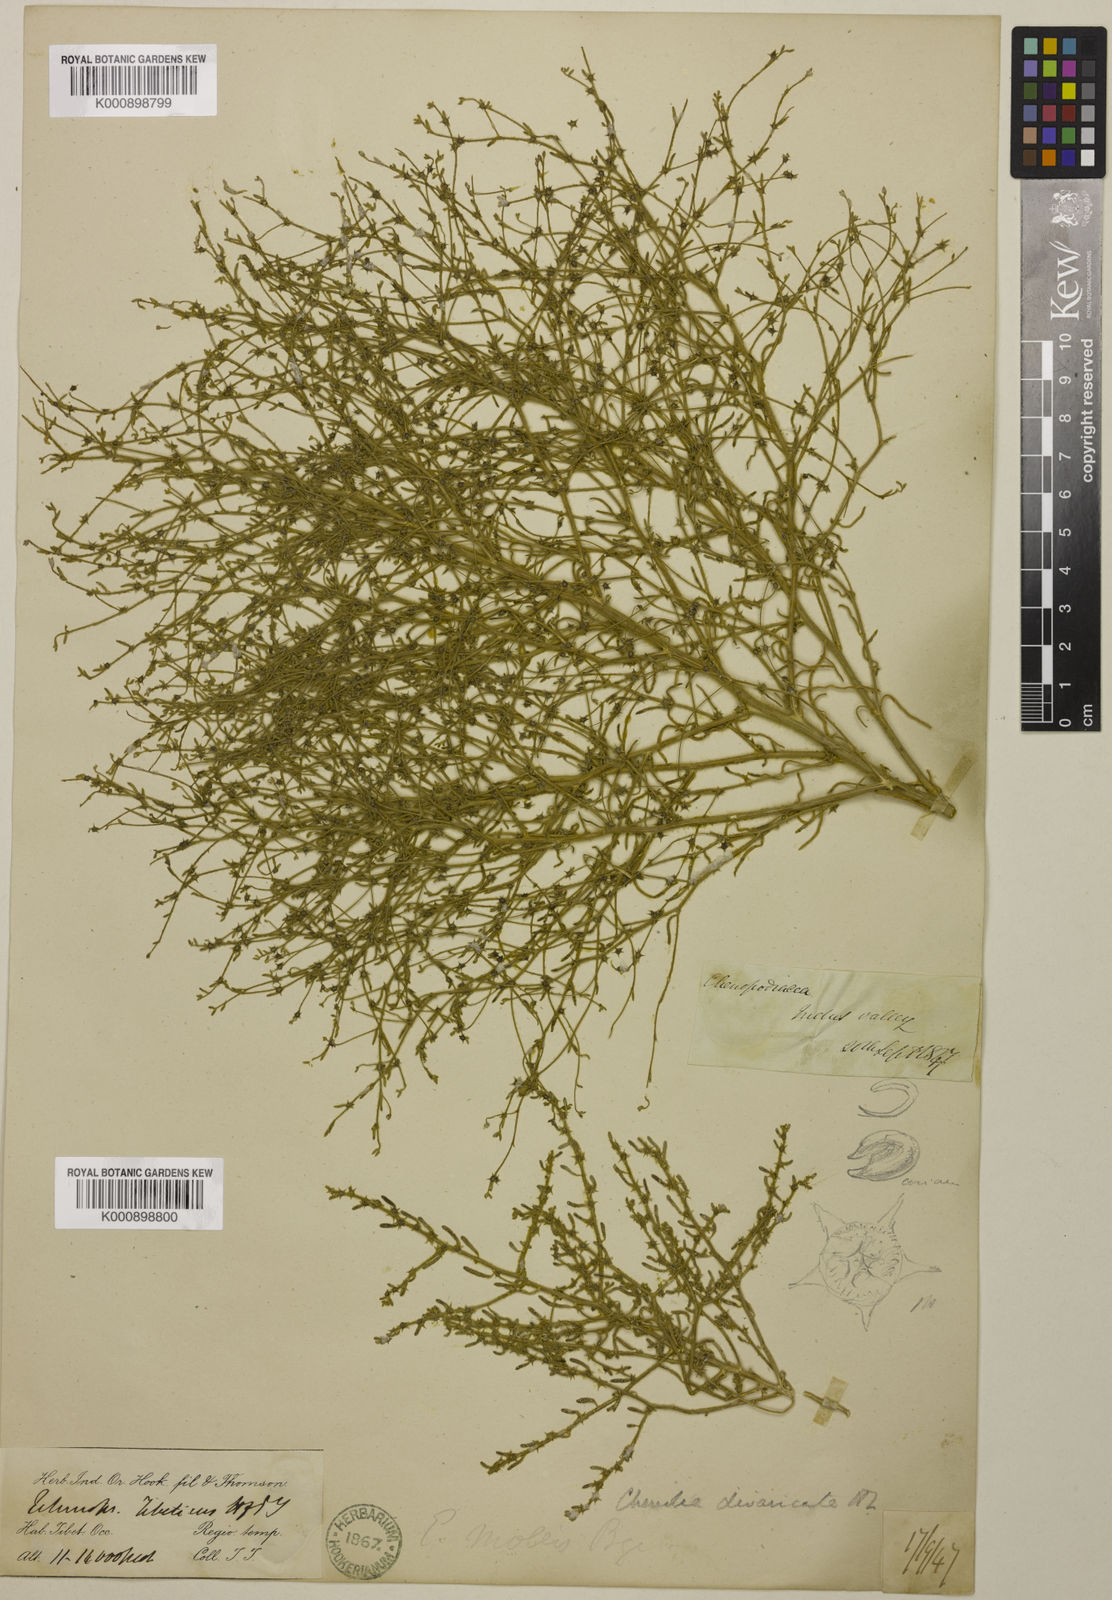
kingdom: Plantae
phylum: Tracheophyta
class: Magnoliopsida
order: Caryophyllales
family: Amaranthaceae
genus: Grubovia
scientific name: Grubovia dasyphylla
